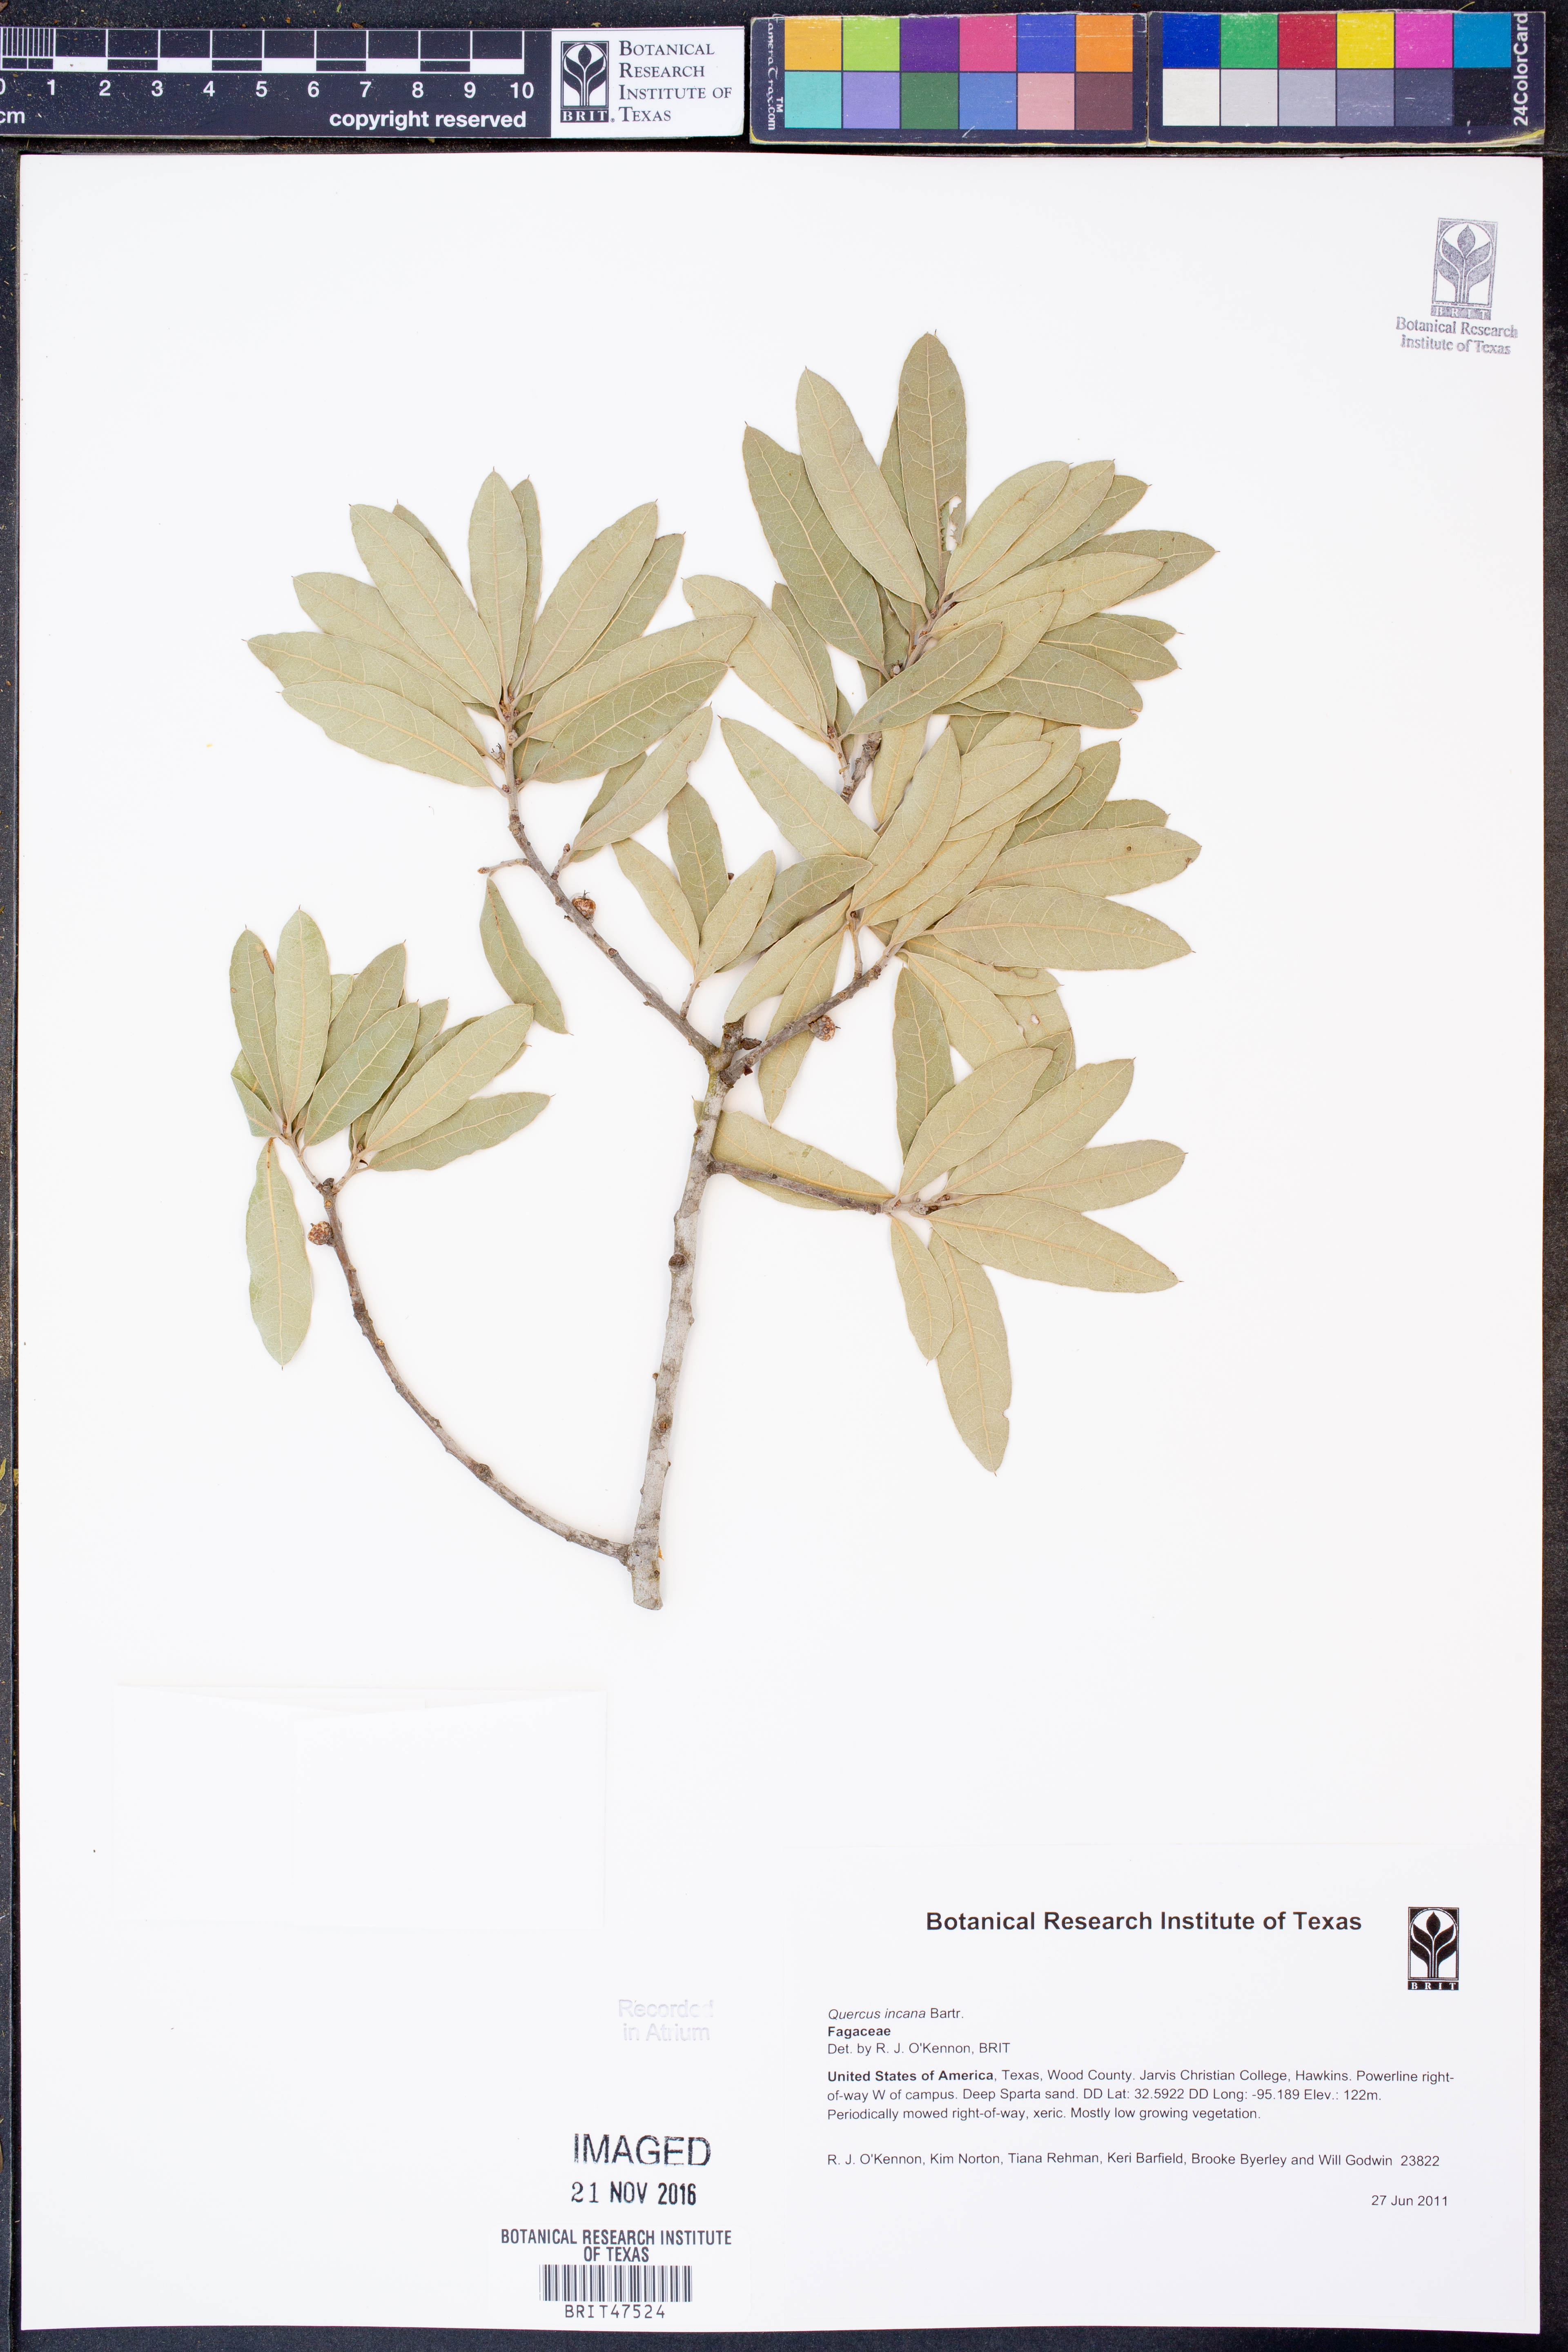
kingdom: Plantae
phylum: Tracheophyta
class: Magnoliopsida
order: Fagales
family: Fagaceae
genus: Quercus
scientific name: Quercus incana
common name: Bluejack oak
